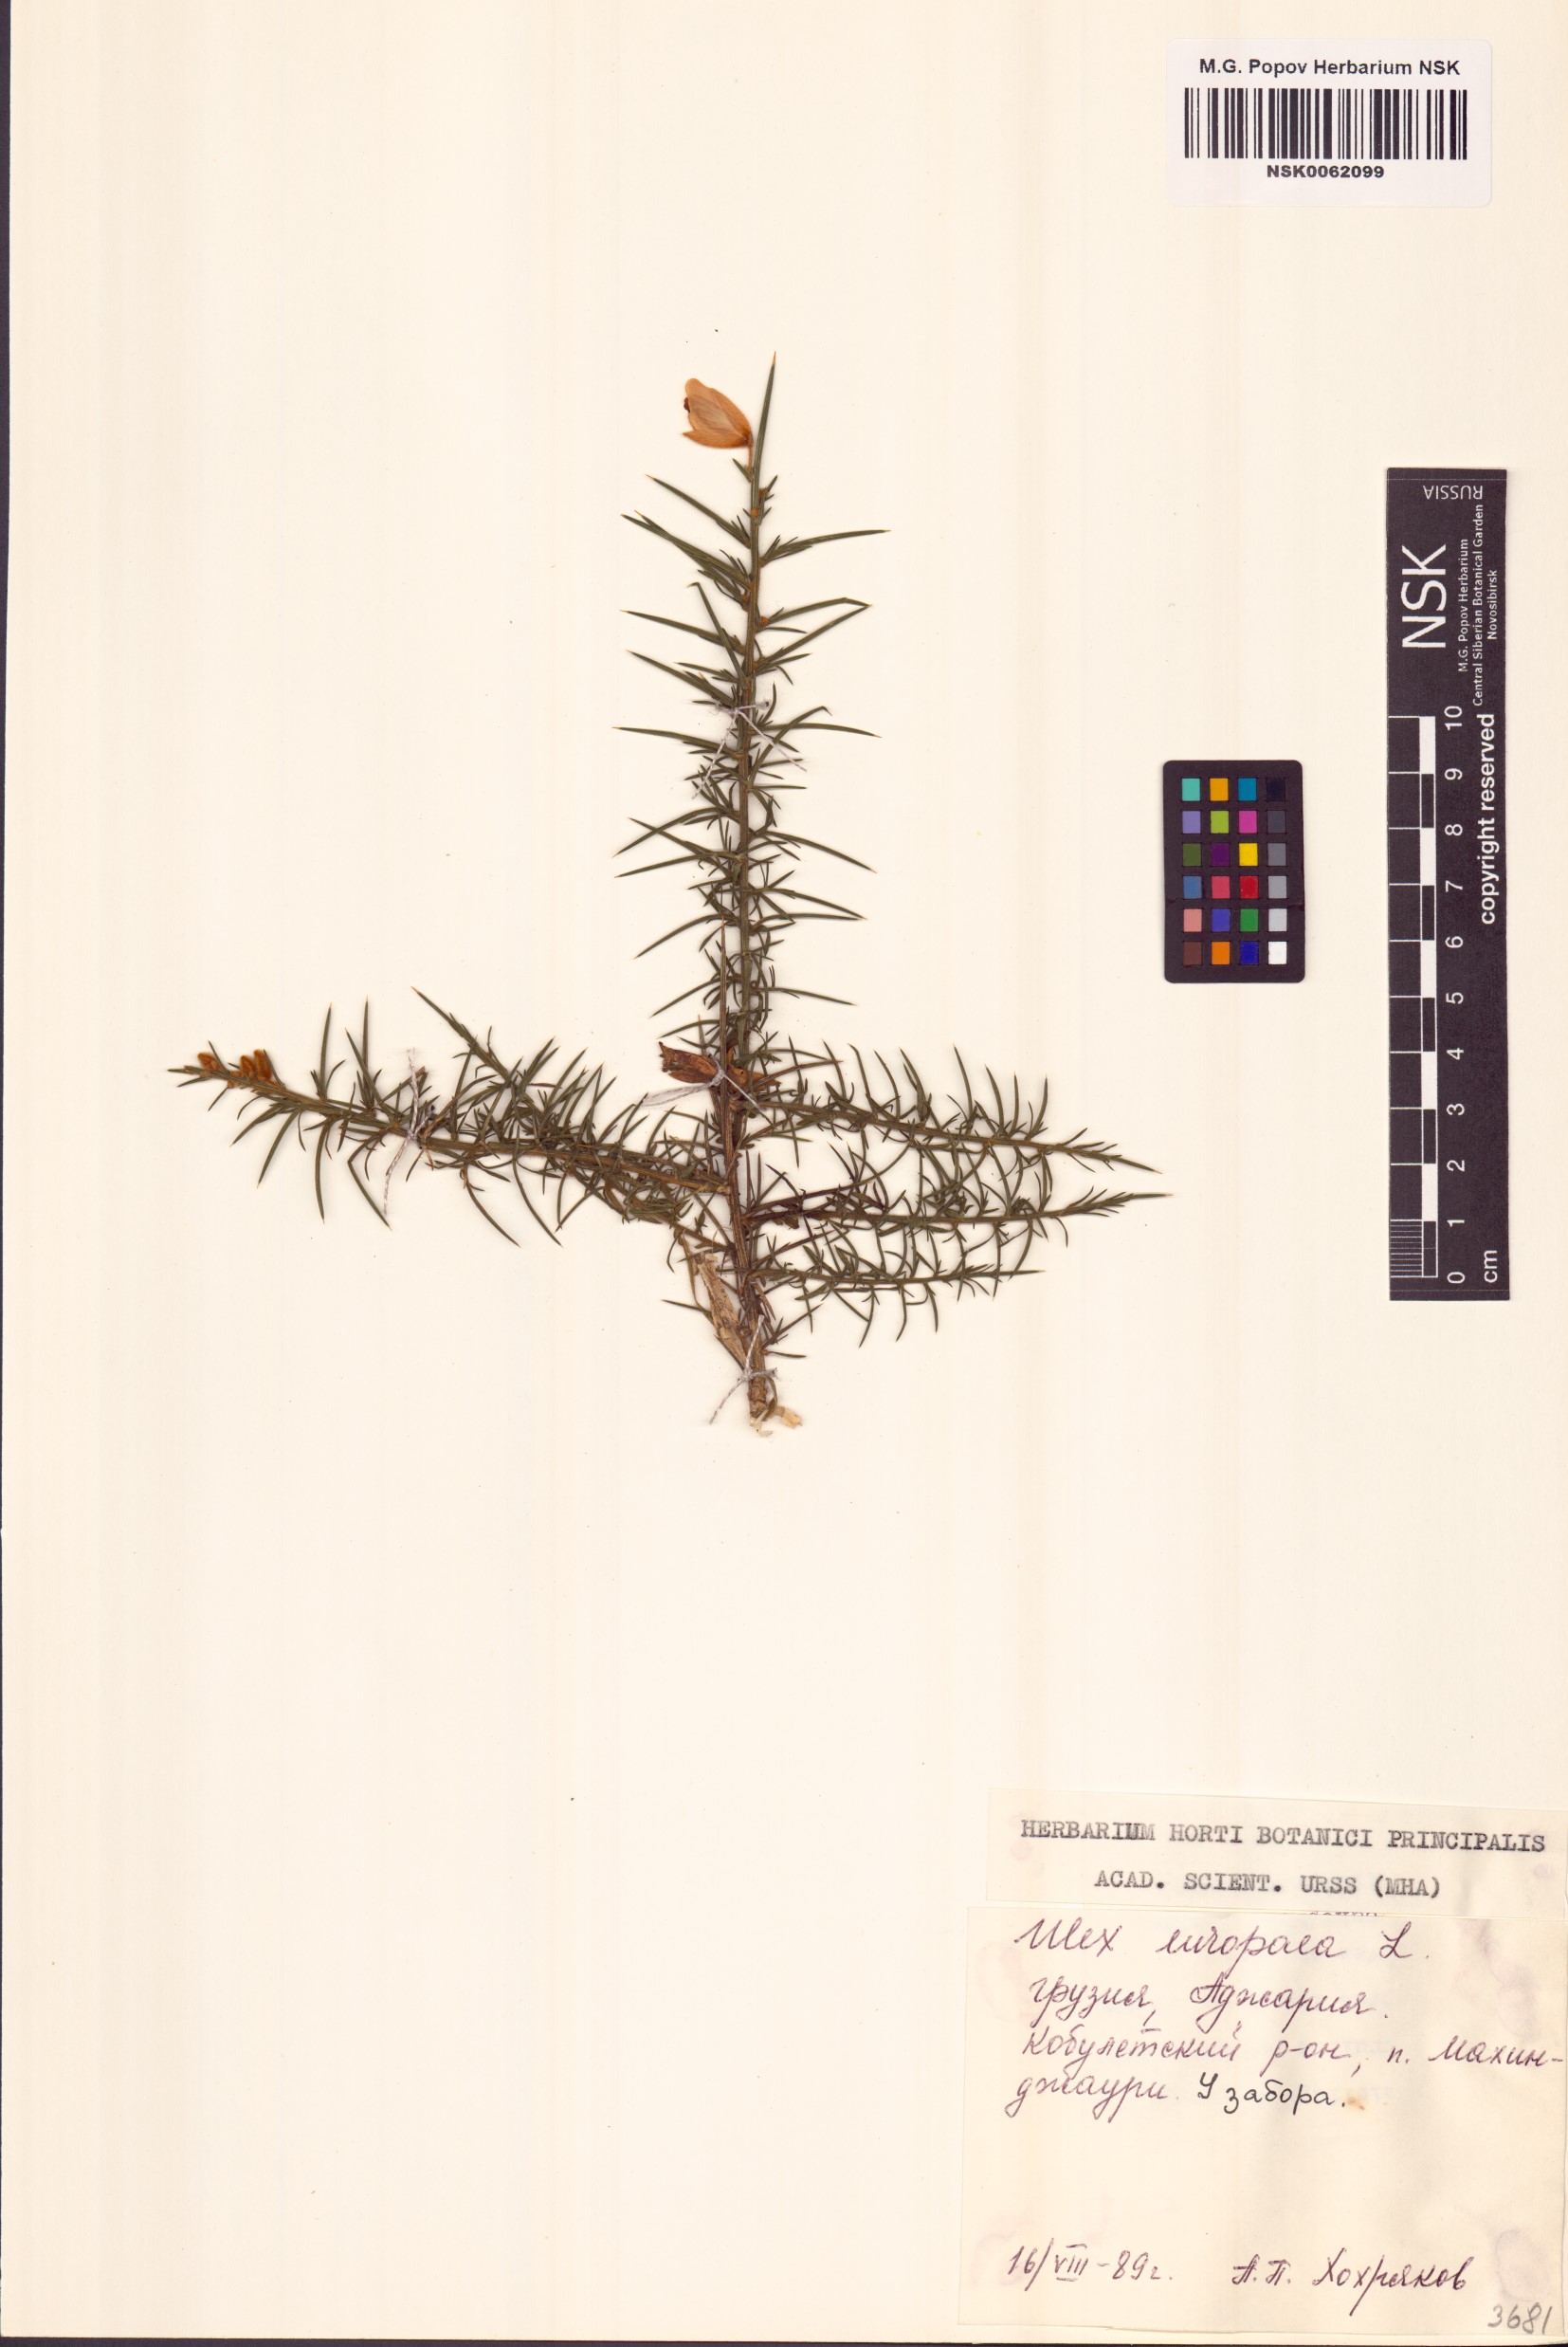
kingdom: Plantae
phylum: Tracheophyta
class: Magnoliopsida
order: Fabales
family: Fabaceae
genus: Ulex
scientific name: Ulex europaeus
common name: Common gorse
